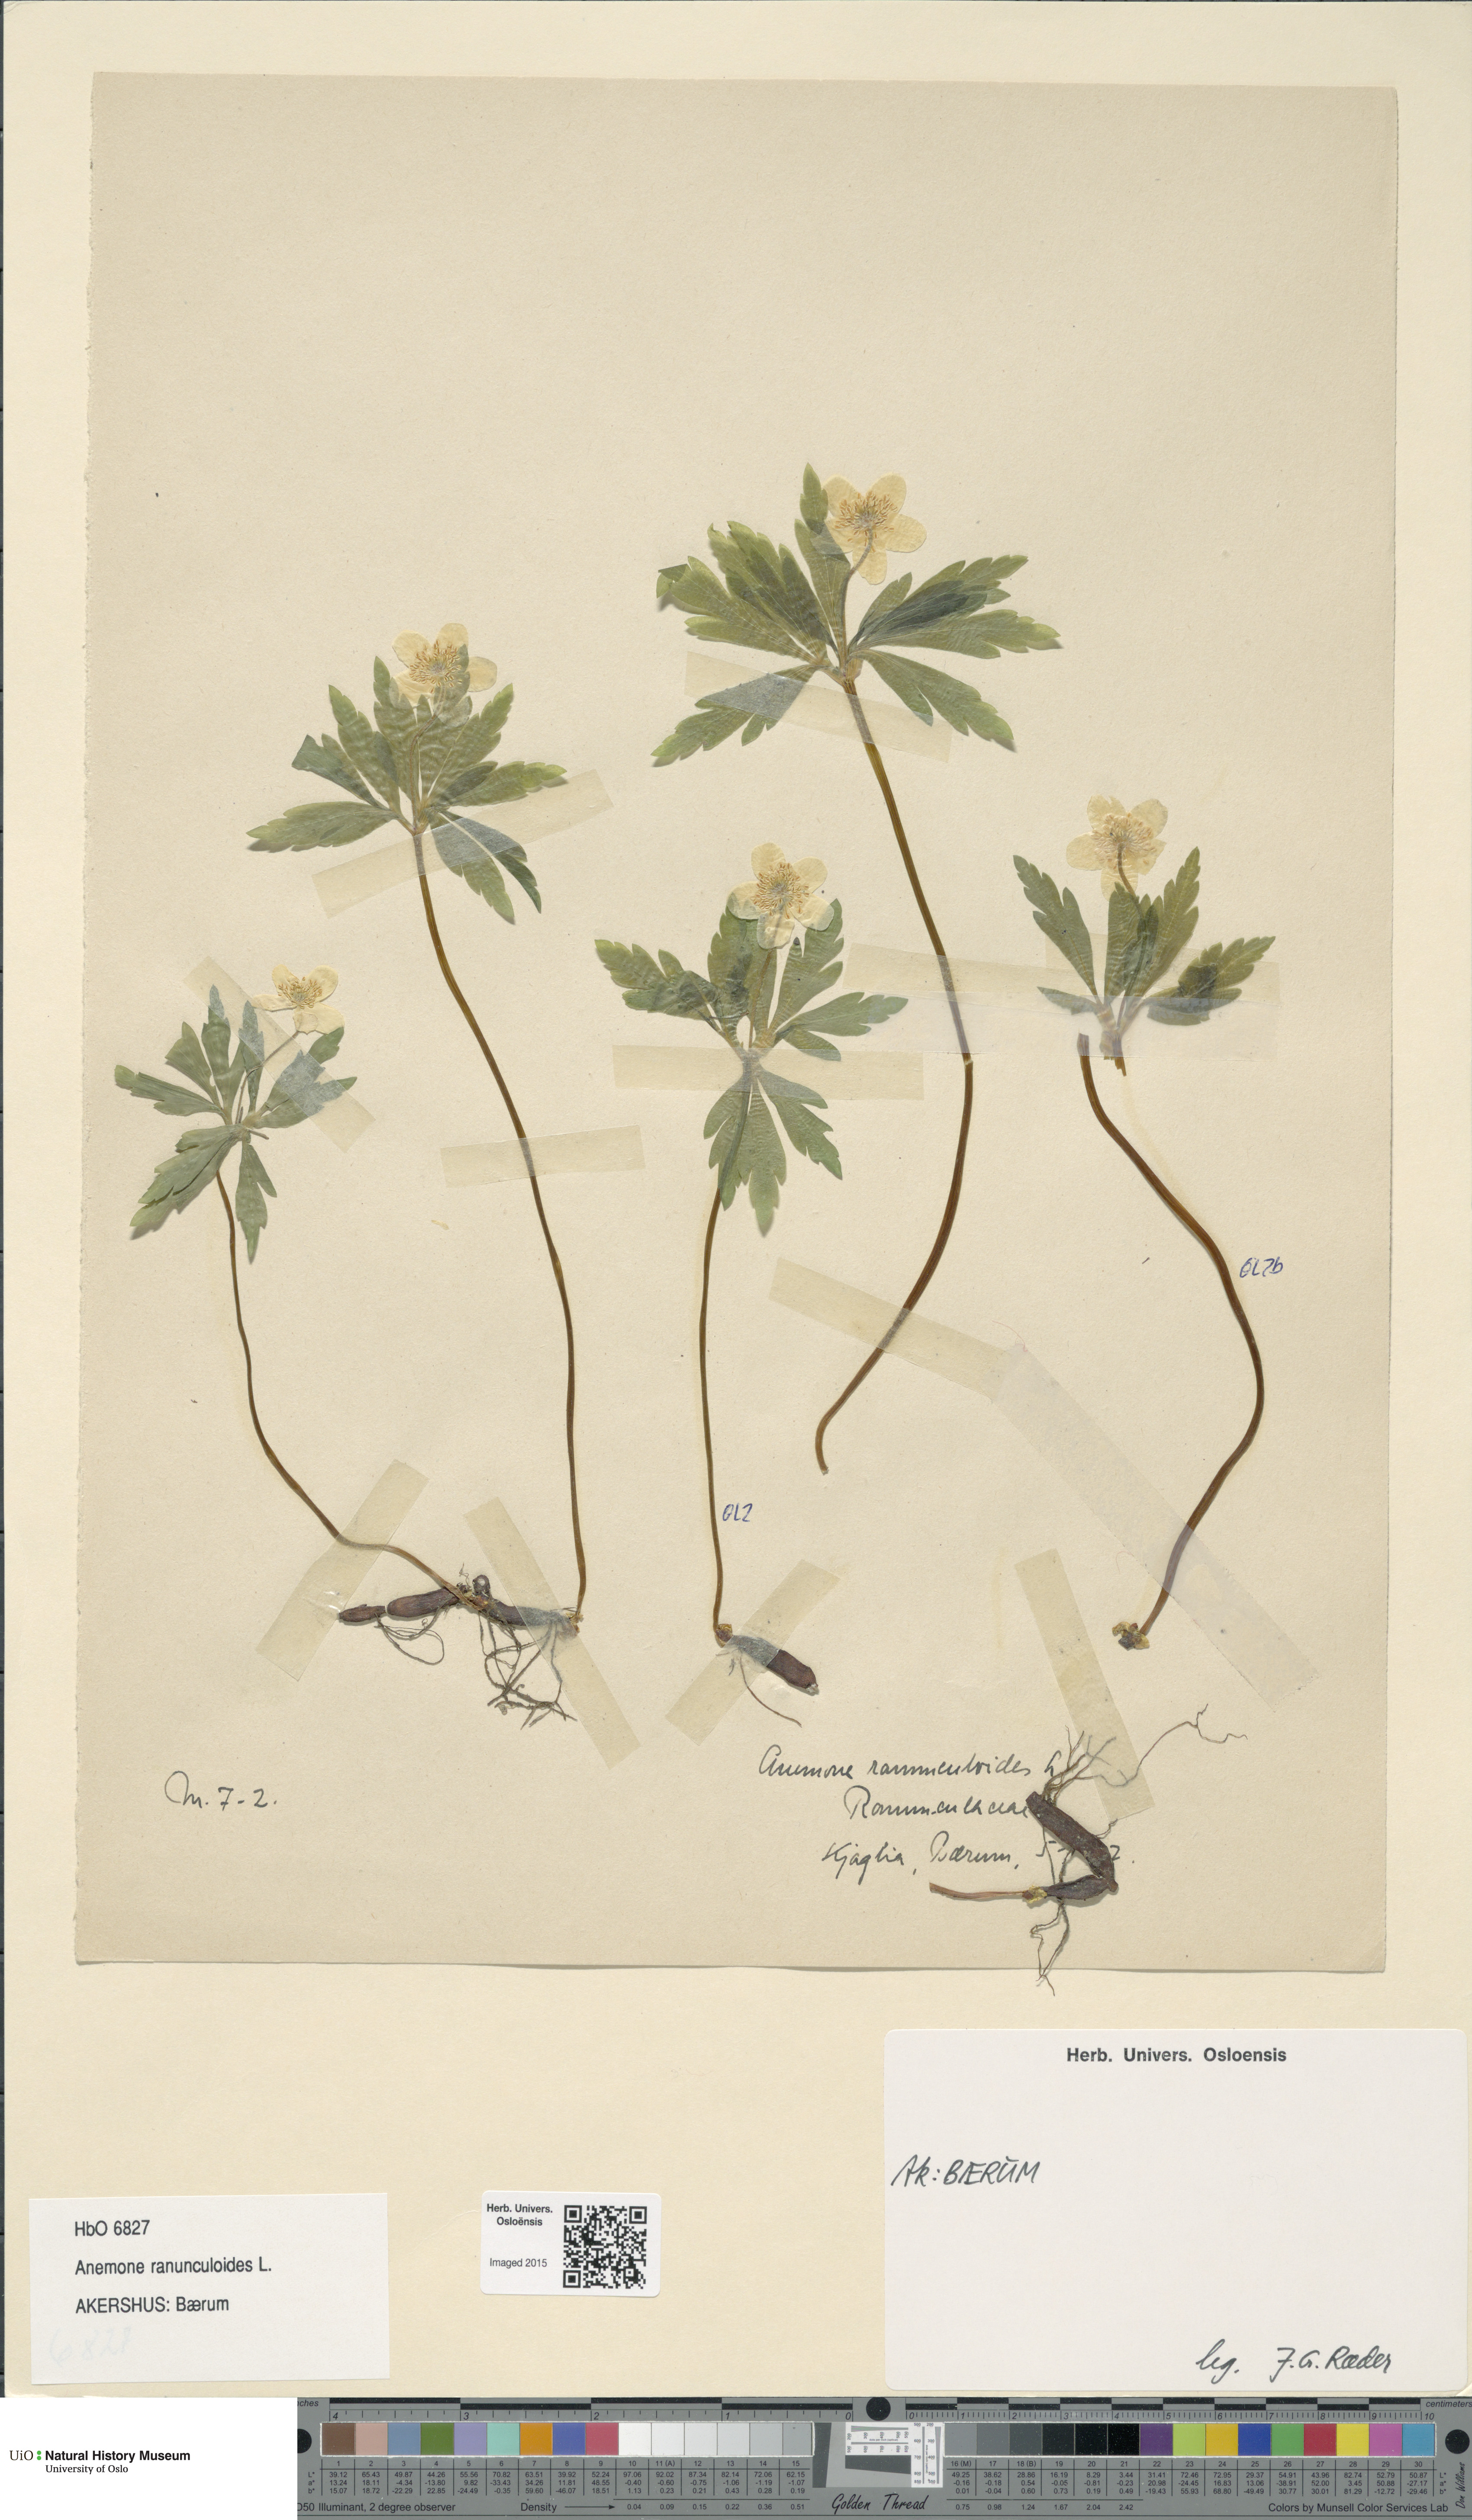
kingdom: Plantae
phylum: Tracheophyta
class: Magnoliopsida
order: Ranunculales
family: Ranunculaceae
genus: Anemone
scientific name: Anemone ranunculoides
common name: Yellow anemone
